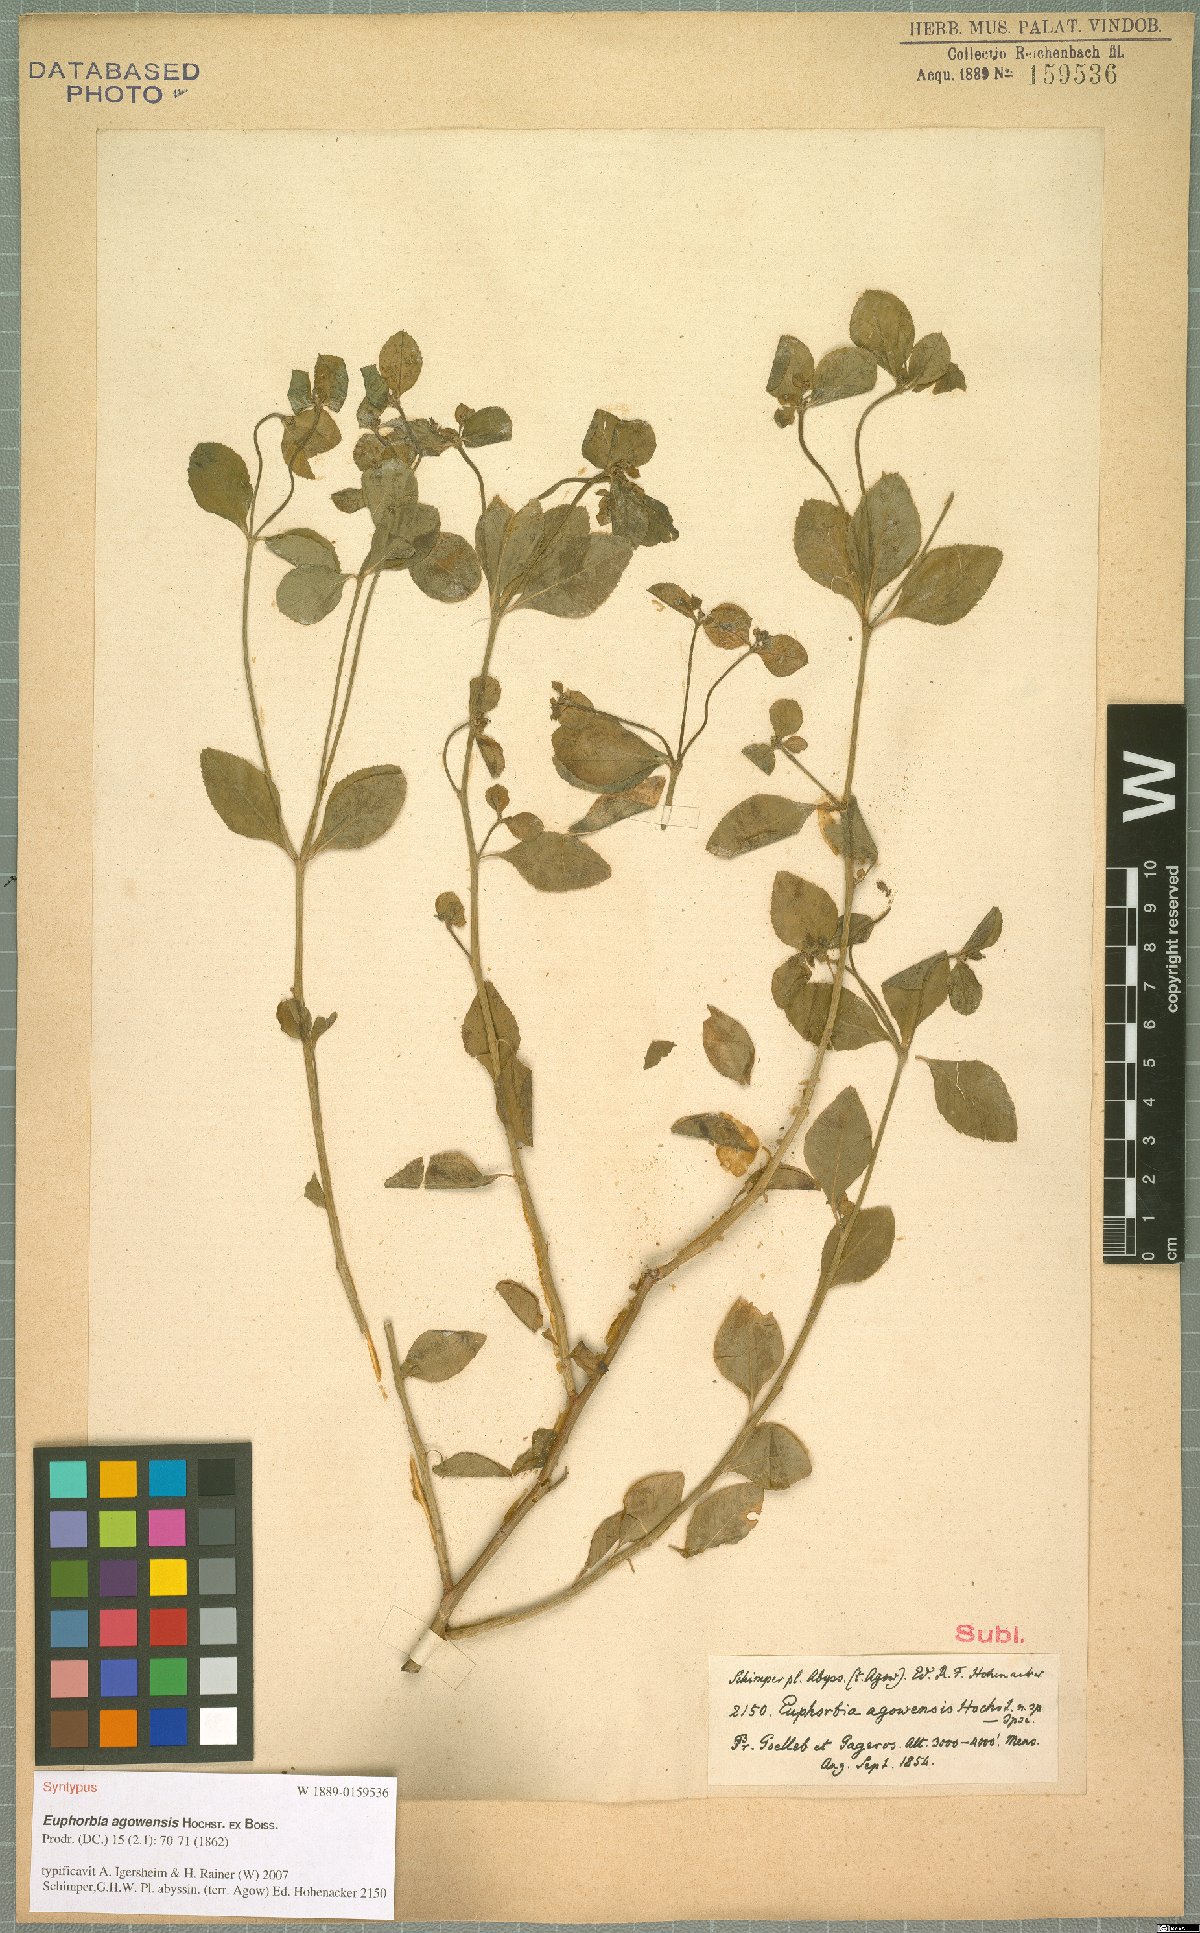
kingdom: Plantae
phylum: Tracheophyta
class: Magnoliopsida
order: Malpighiales
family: Euphorbiaceae
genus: Euphorbia
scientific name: Euphorbia agowensis
